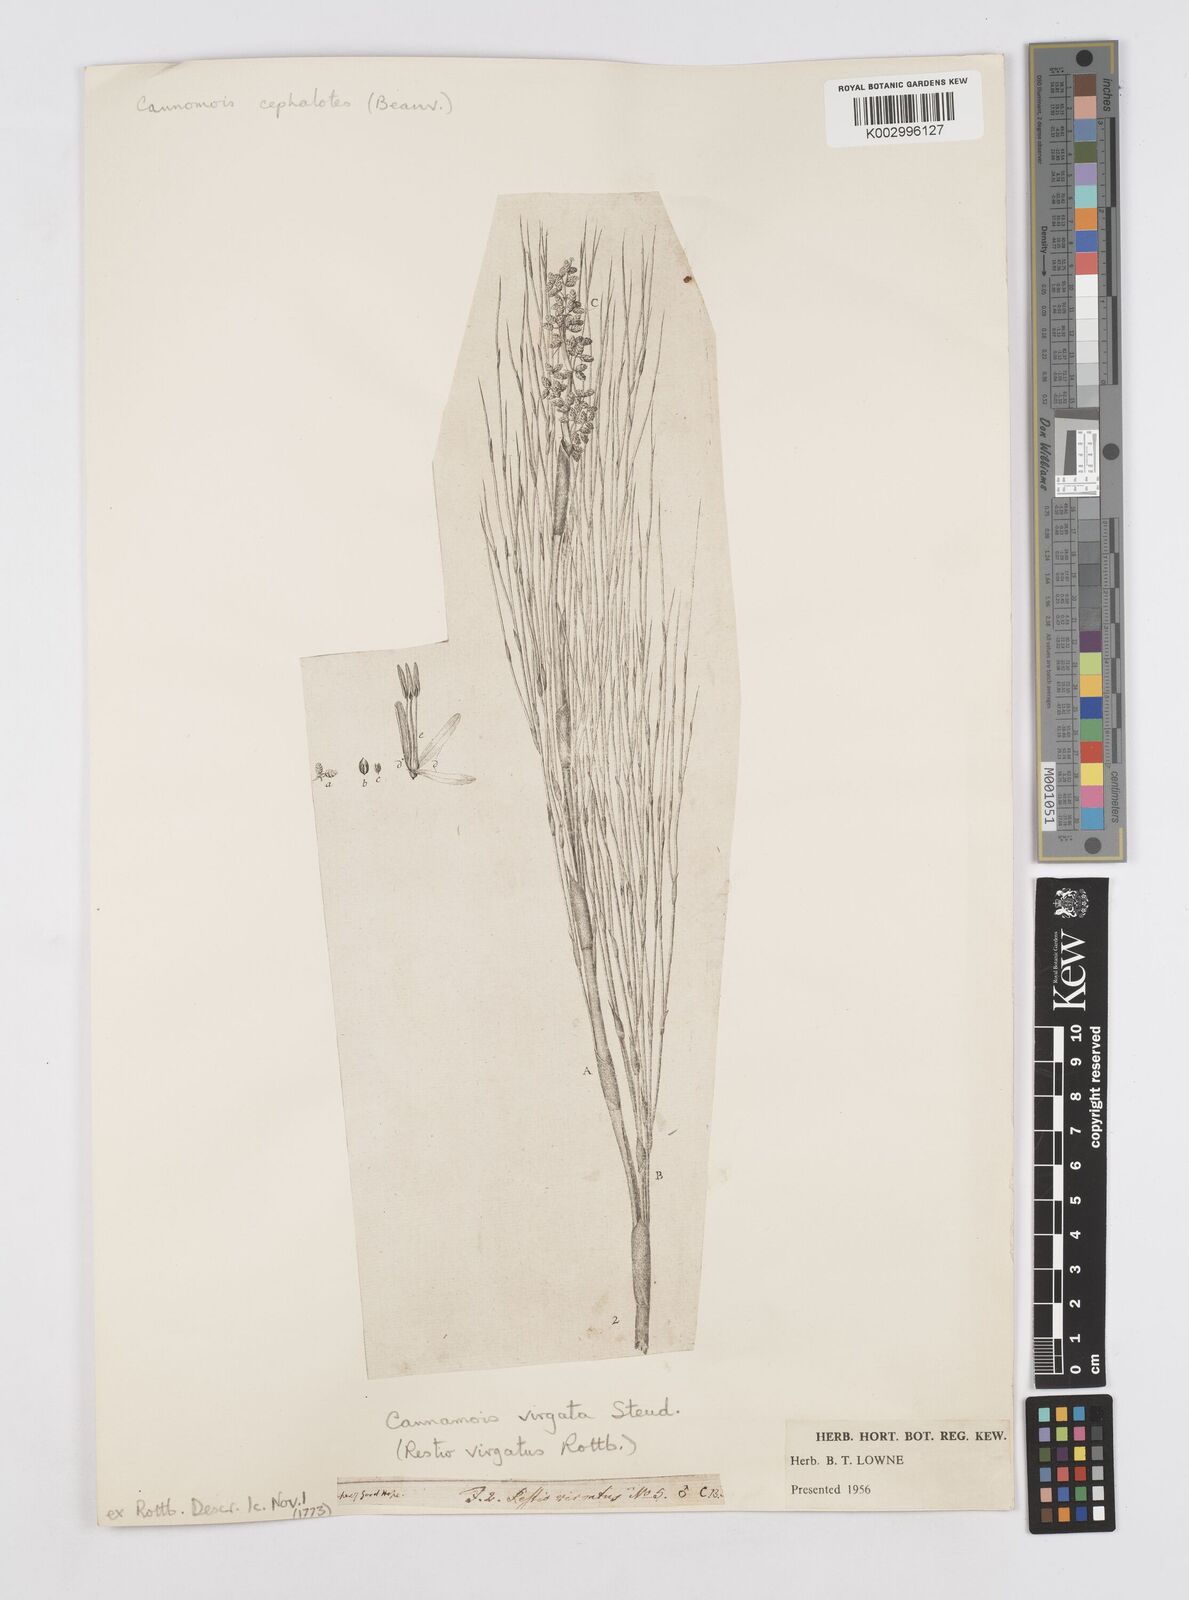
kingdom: Plantae
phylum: Tracheophyta
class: Liliopsida
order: Poales
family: Restionaceae
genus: Cannomois
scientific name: Cannomois virgata
